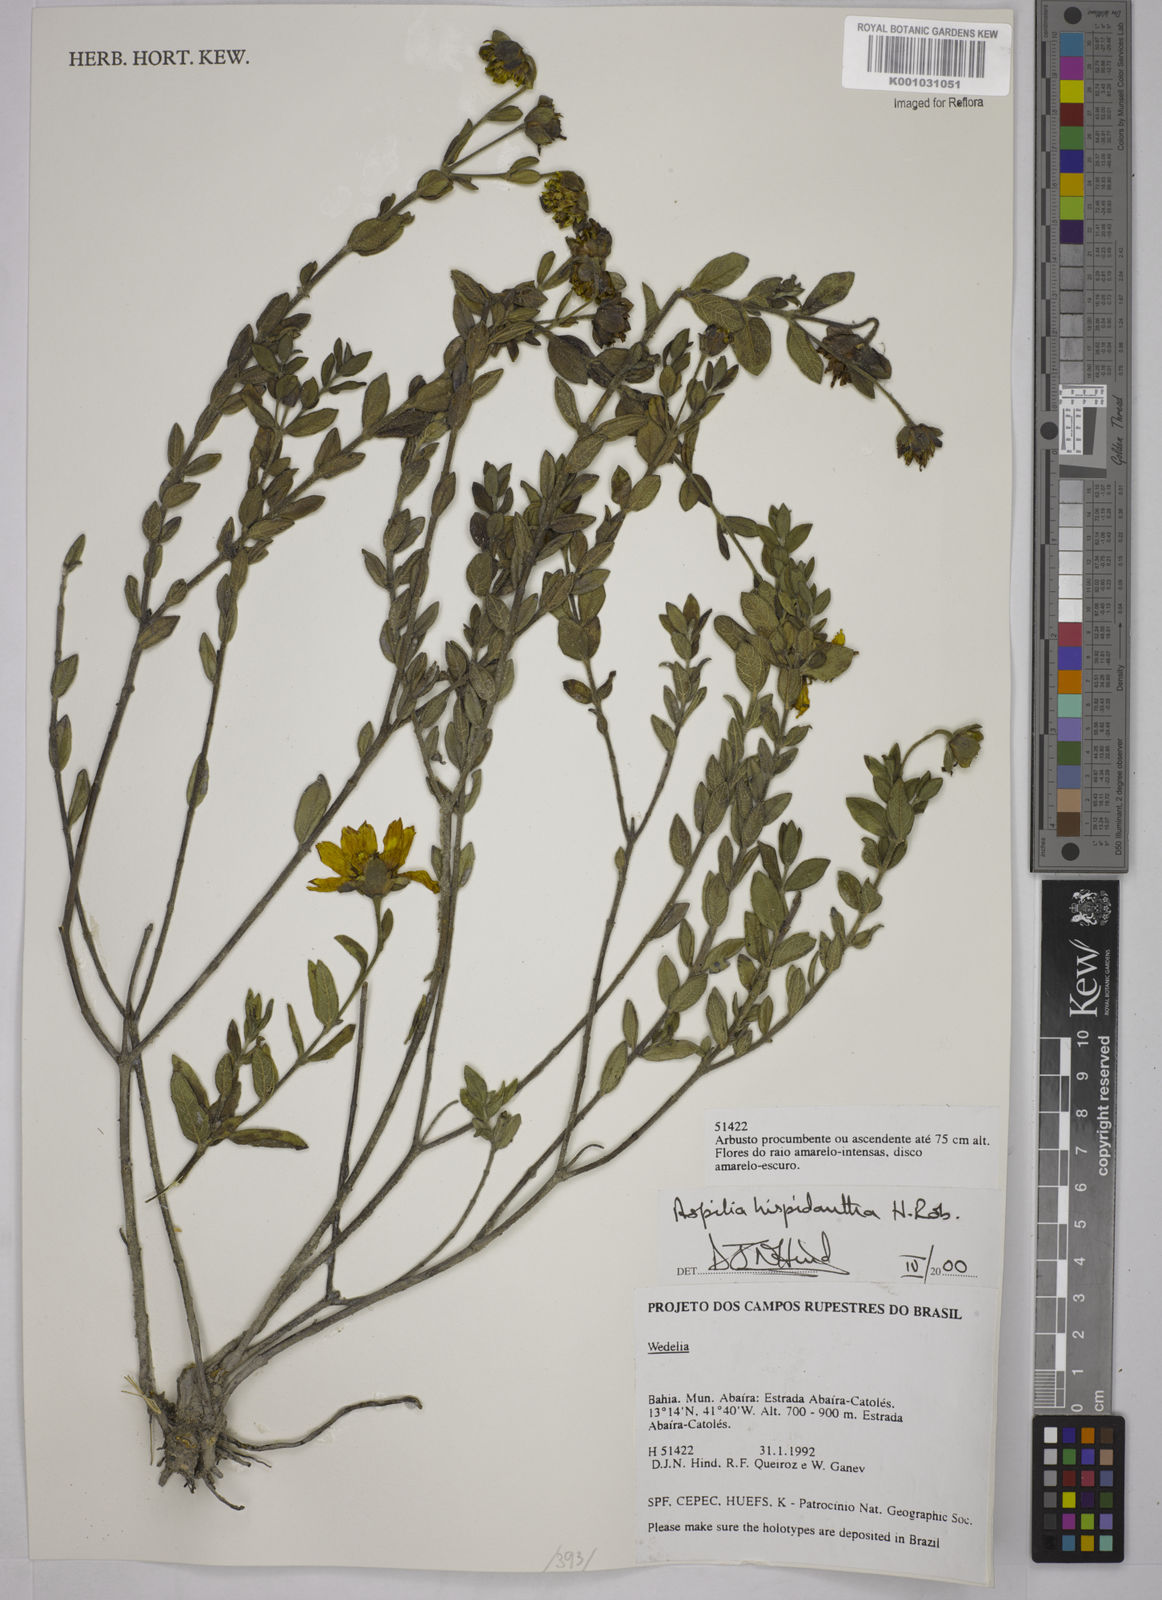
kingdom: Plantae
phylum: Tracheophyta
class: Magnoliopsida
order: Asterales
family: Asteraceae
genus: Wedelia
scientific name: Wedelia subalpestris
